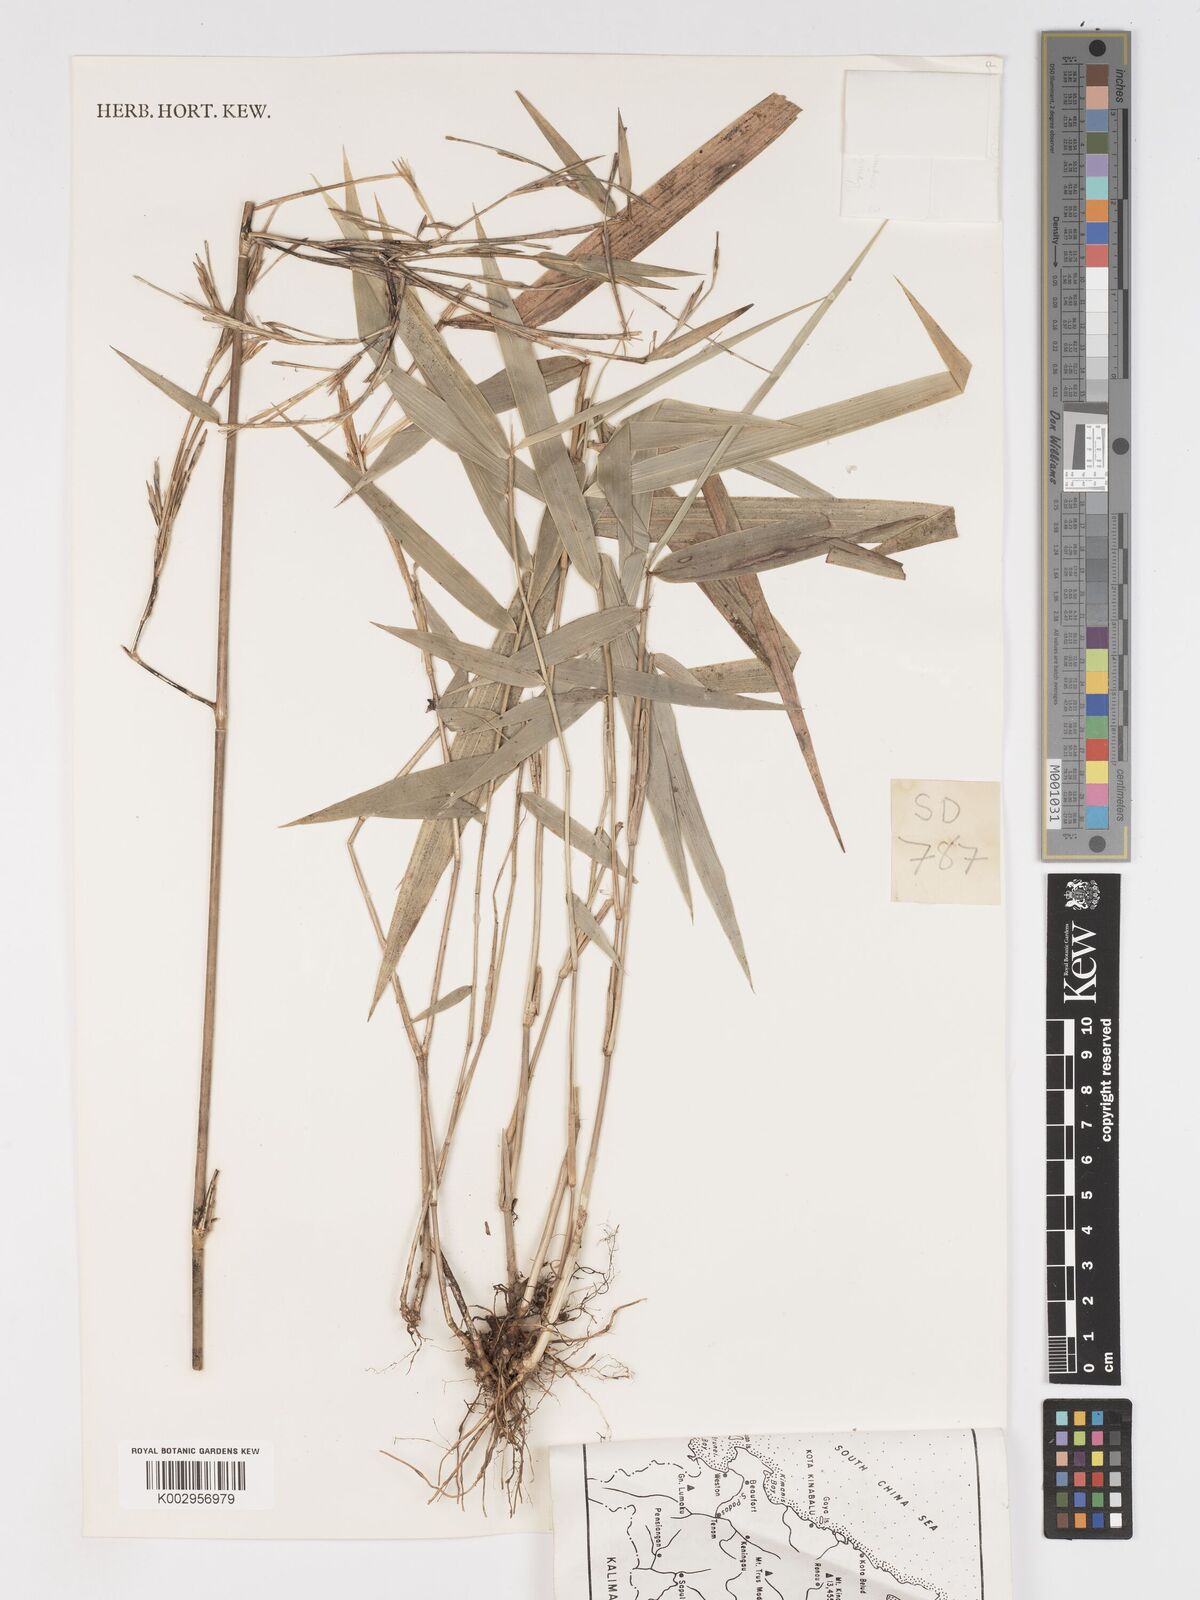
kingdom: Plantae
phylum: Tracheophyta
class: Liliopsida
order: Poales
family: Poaceae
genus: Racemobambos
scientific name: Racemobambos hirsuta
